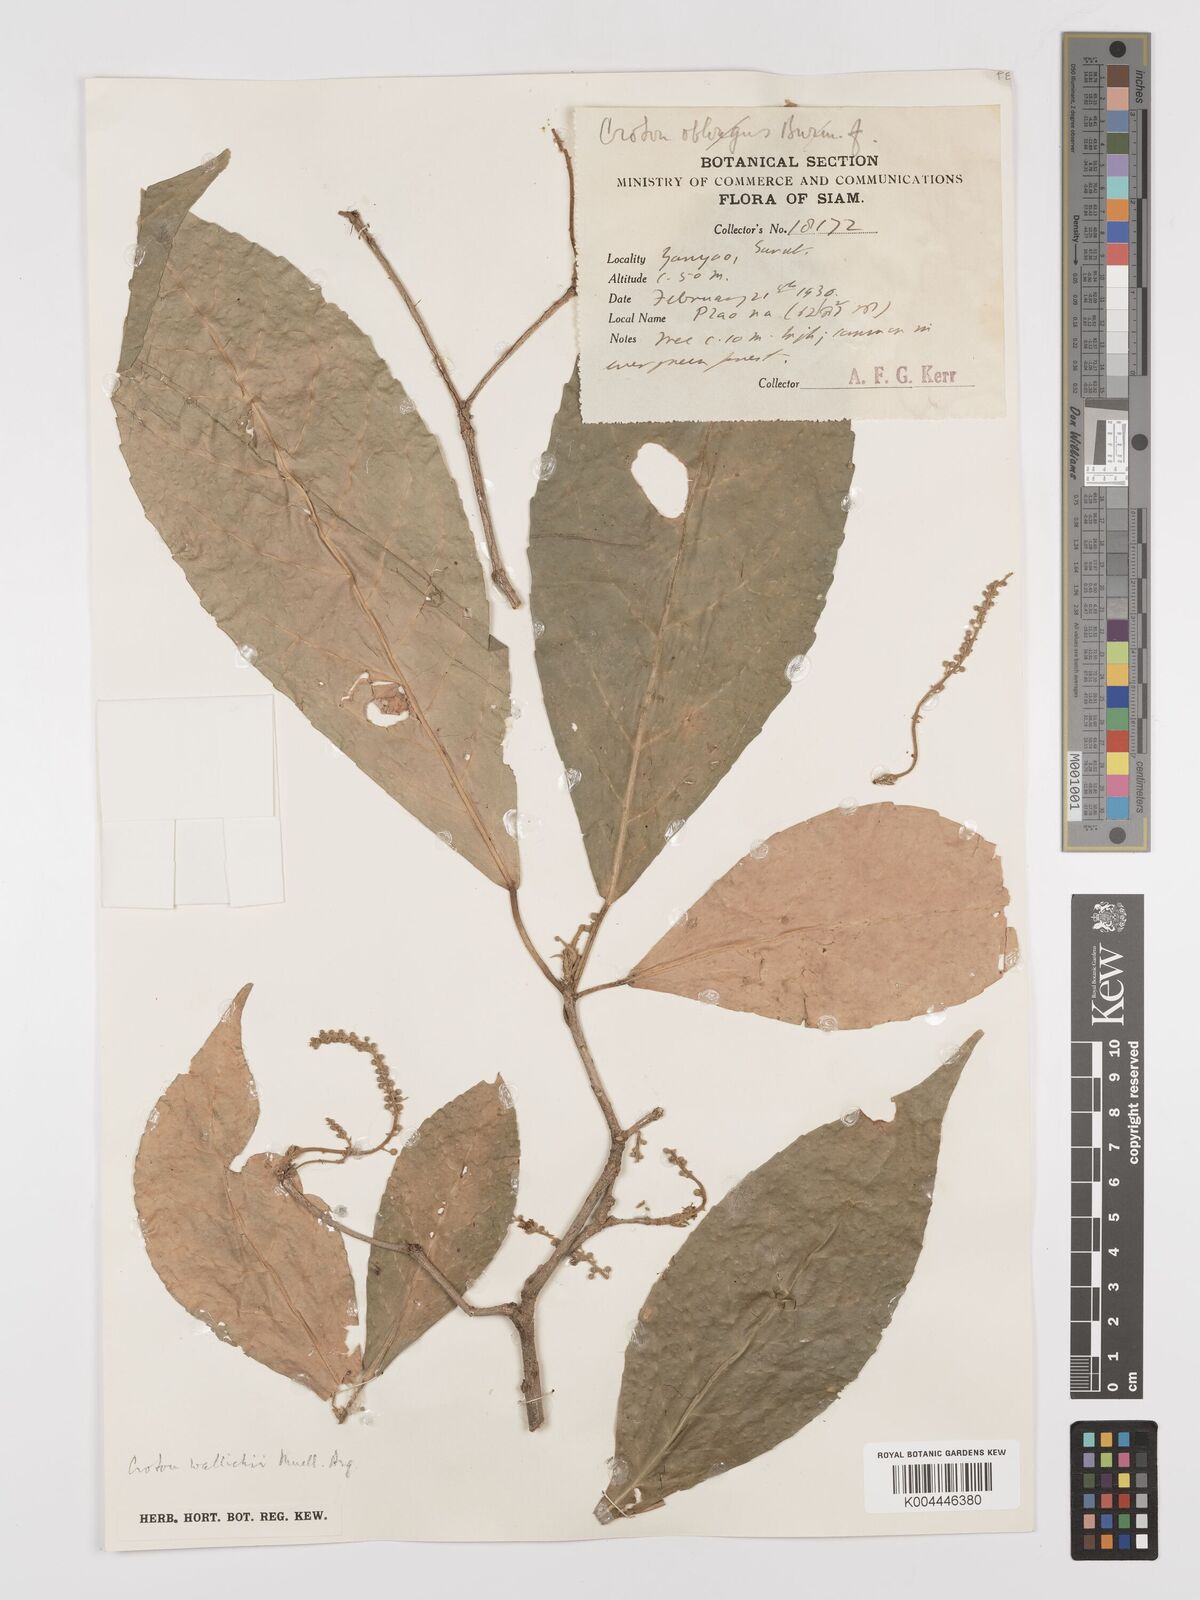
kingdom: Plantae
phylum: Tracheophyta
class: Magnoliopsida
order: Malpighiales
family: Euphorbiaceae
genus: Croton
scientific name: Croton wallichii
